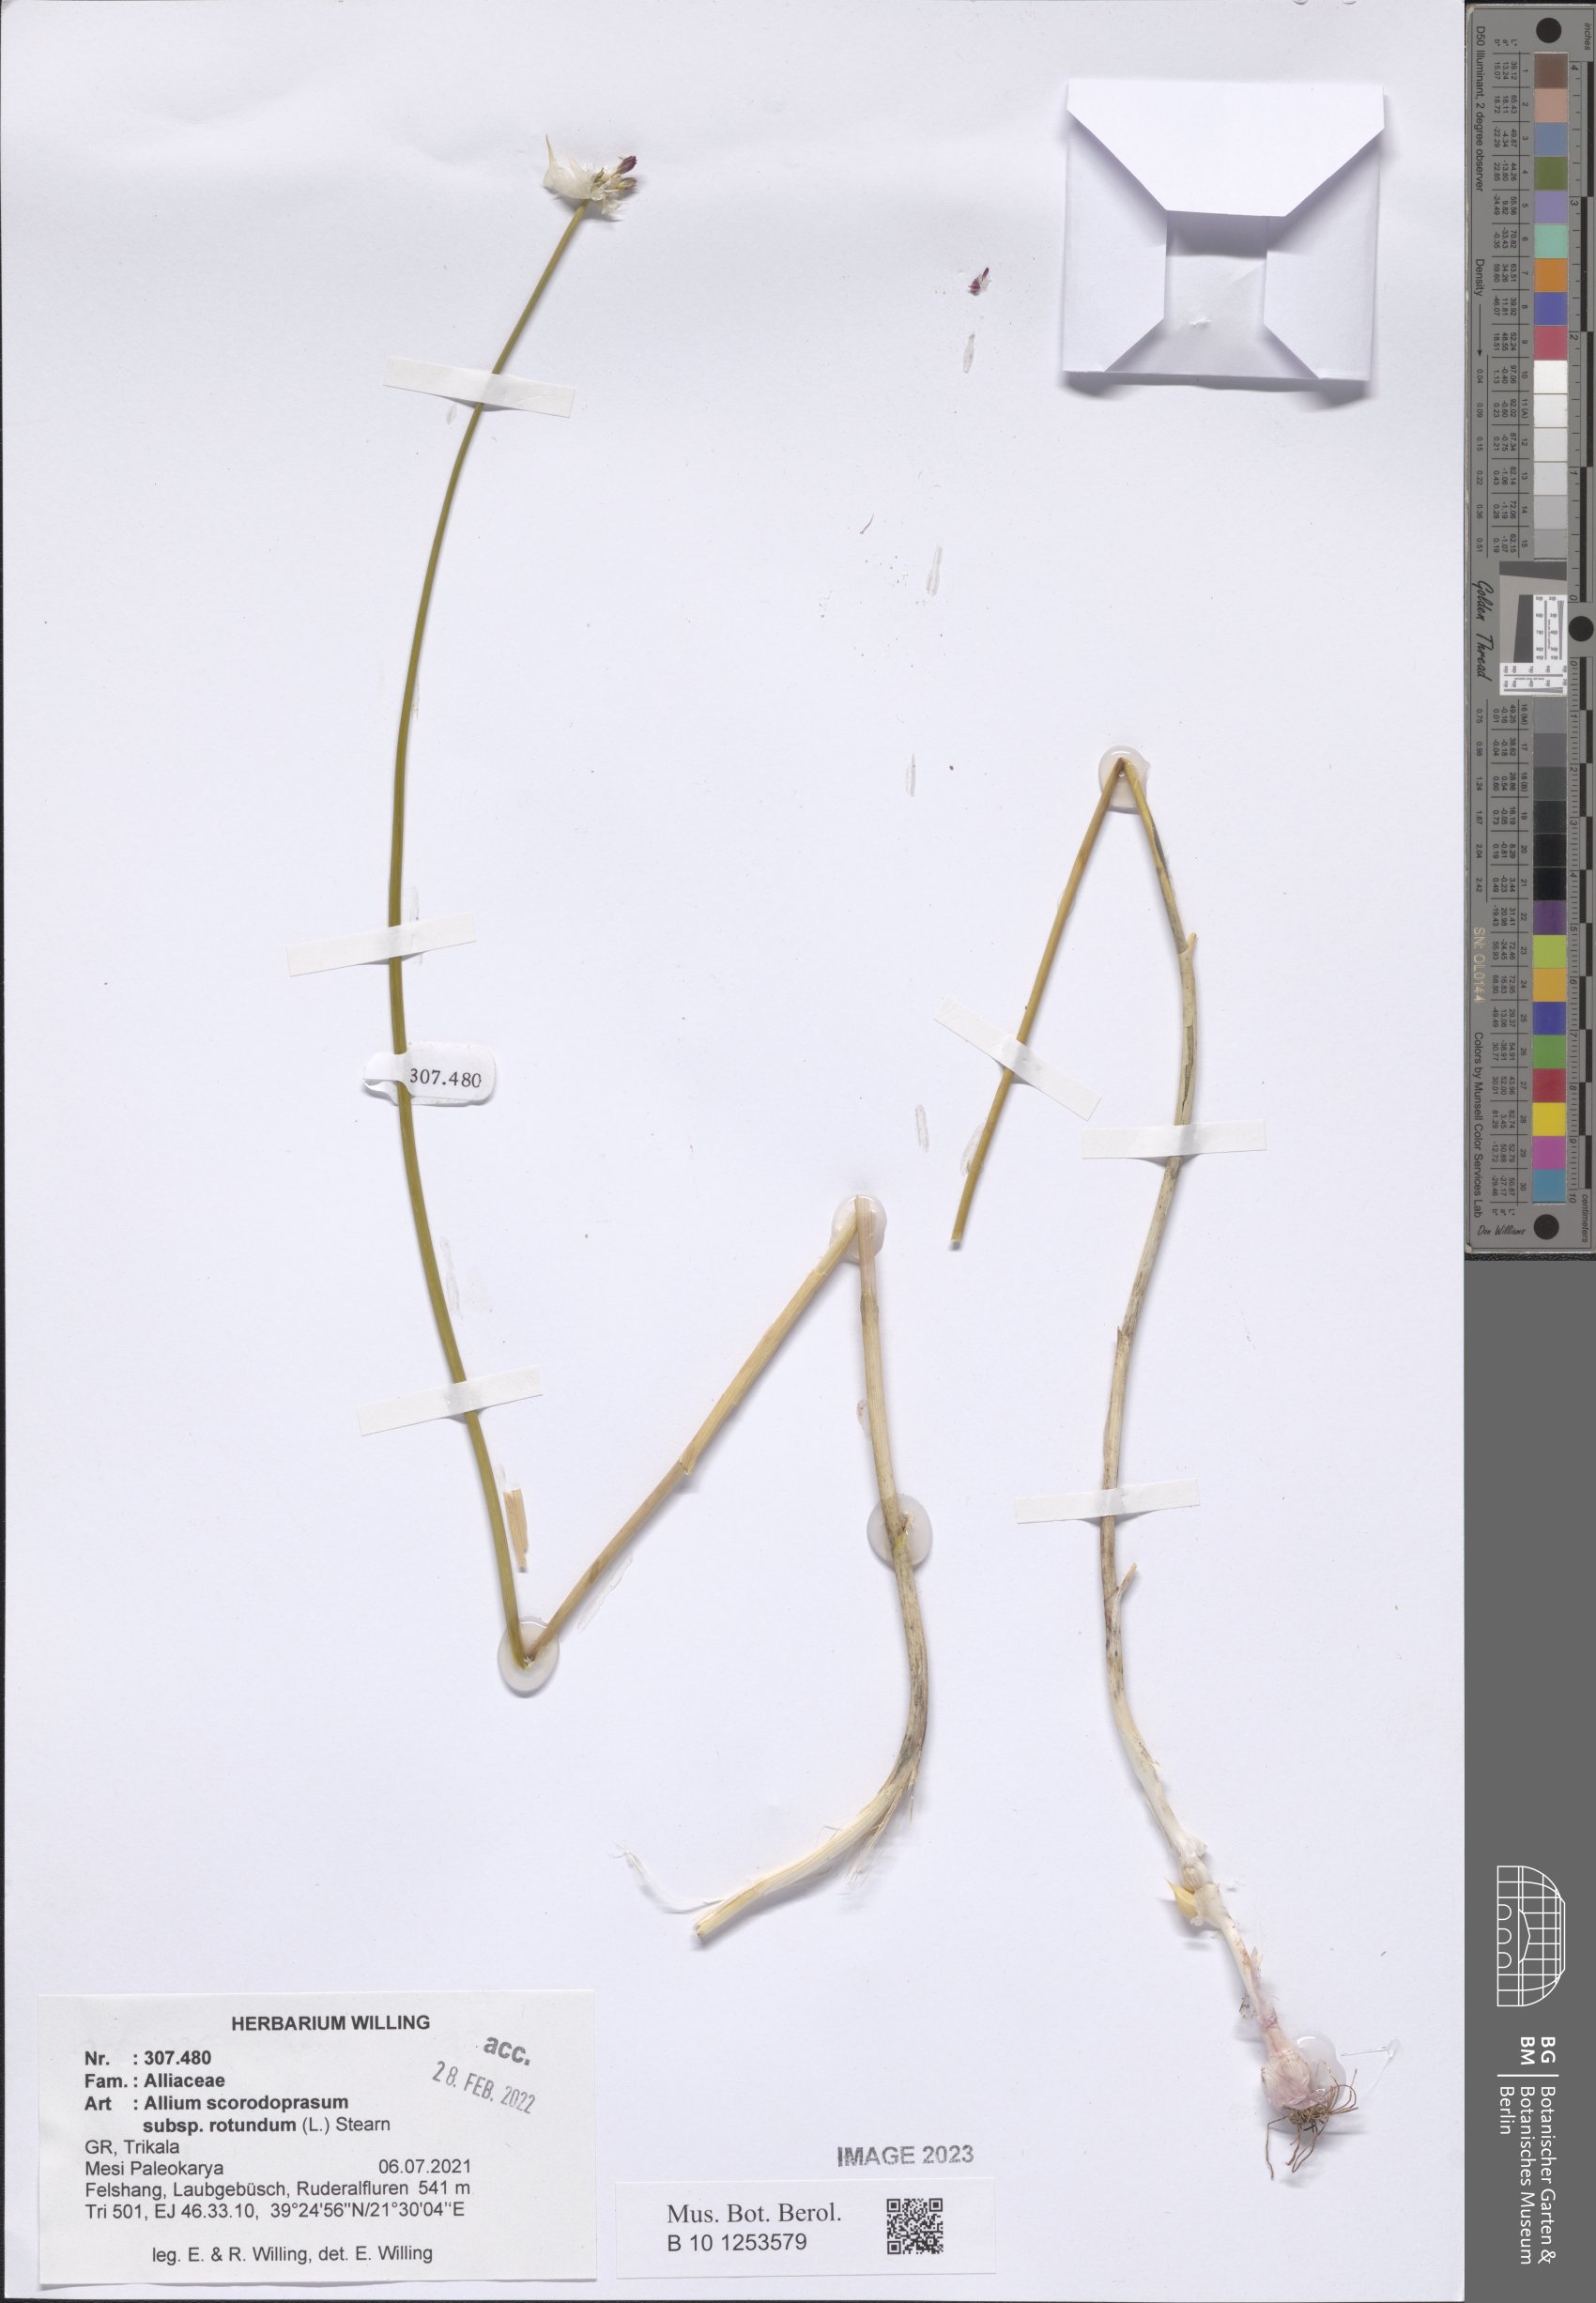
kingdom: Plantae
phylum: Tracheophyta
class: Liliopsida
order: Asparagales
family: Amaryllidaceae
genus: Allium
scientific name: Allium rotundum
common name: Sand leek
